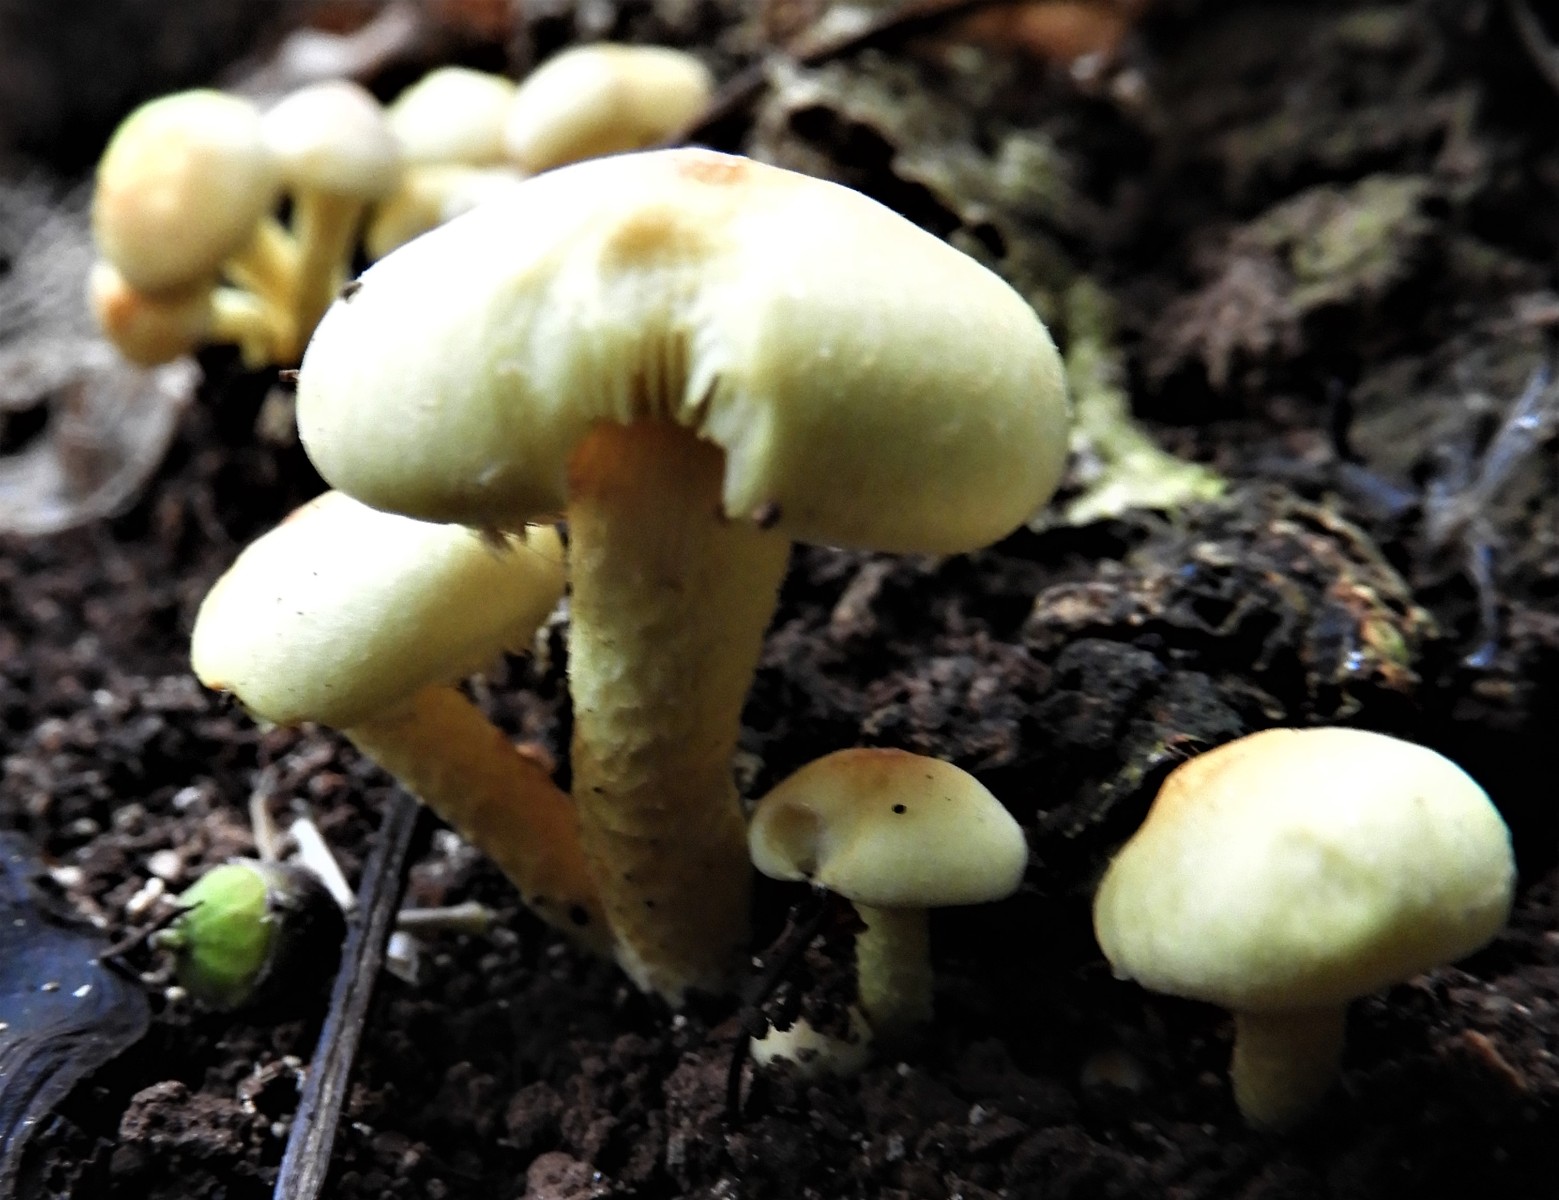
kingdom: Fungi
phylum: Basidiomycota
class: Agaricomycetes
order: Agaricales
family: Strophariaceae
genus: Hypholoma
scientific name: Hypholoma fasciculare
